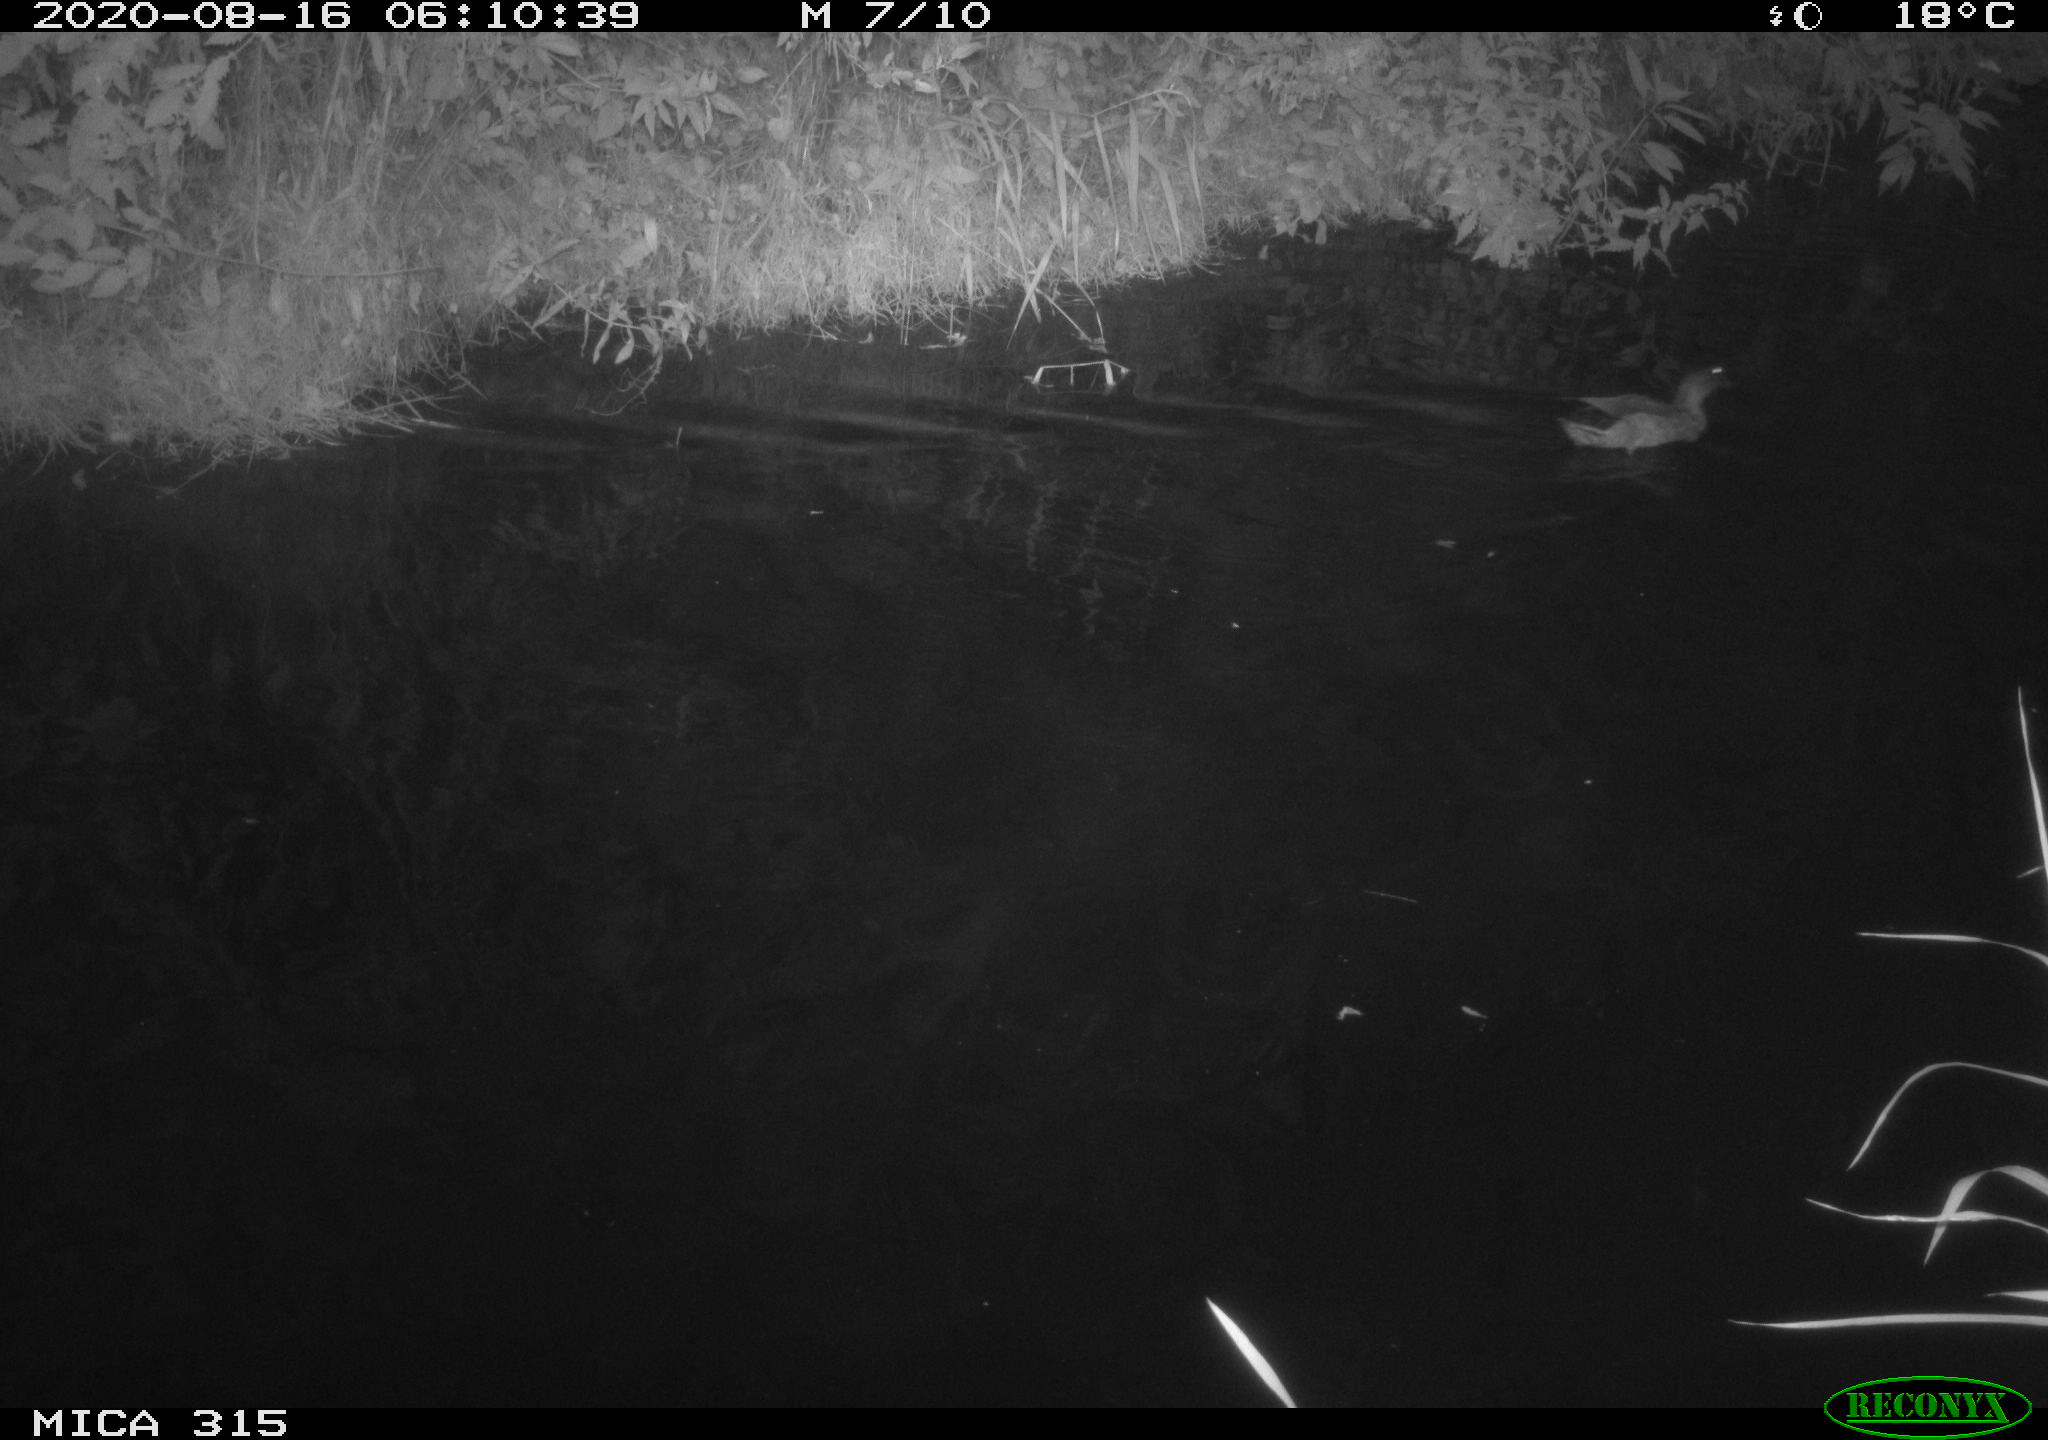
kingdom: Animalia
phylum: Chordata
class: Aves
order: Anseriformes
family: Anatidae
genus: Anas
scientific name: Anas platyrhynchos
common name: Mallard
